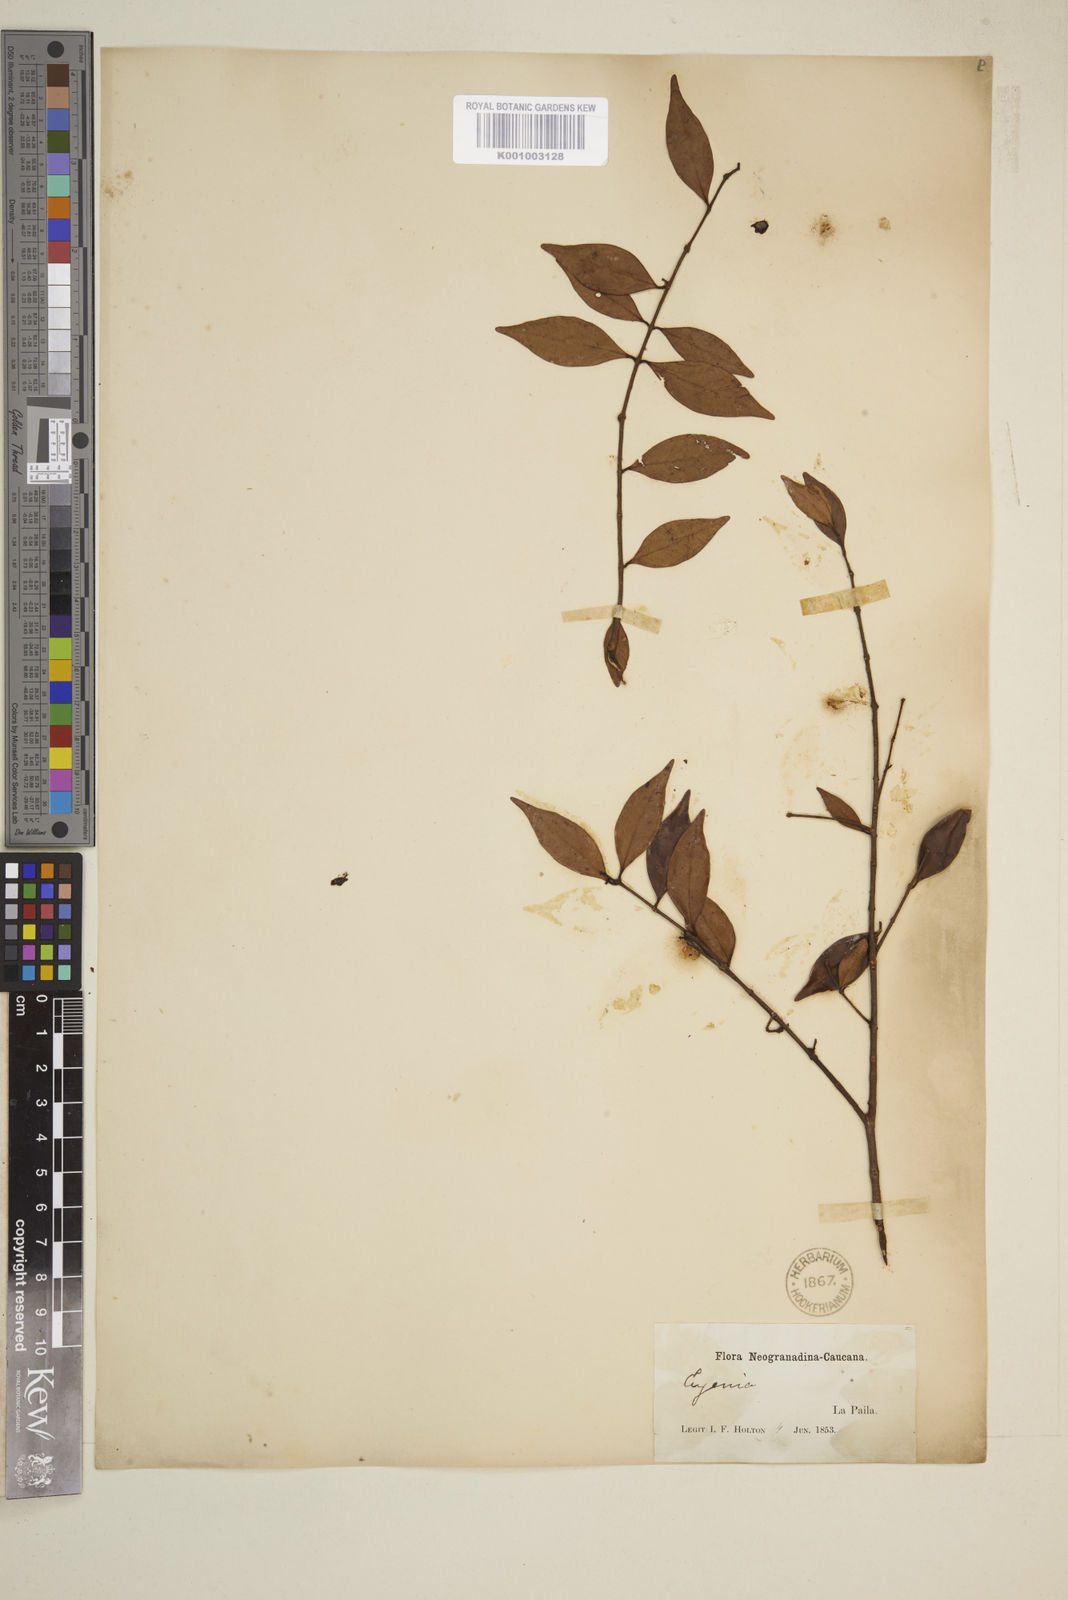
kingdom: Plantae
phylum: Tracheophyta
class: Magnoliopsida
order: Myrtales
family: Myrtaceae
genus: Eugenia
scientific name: Eugenia
